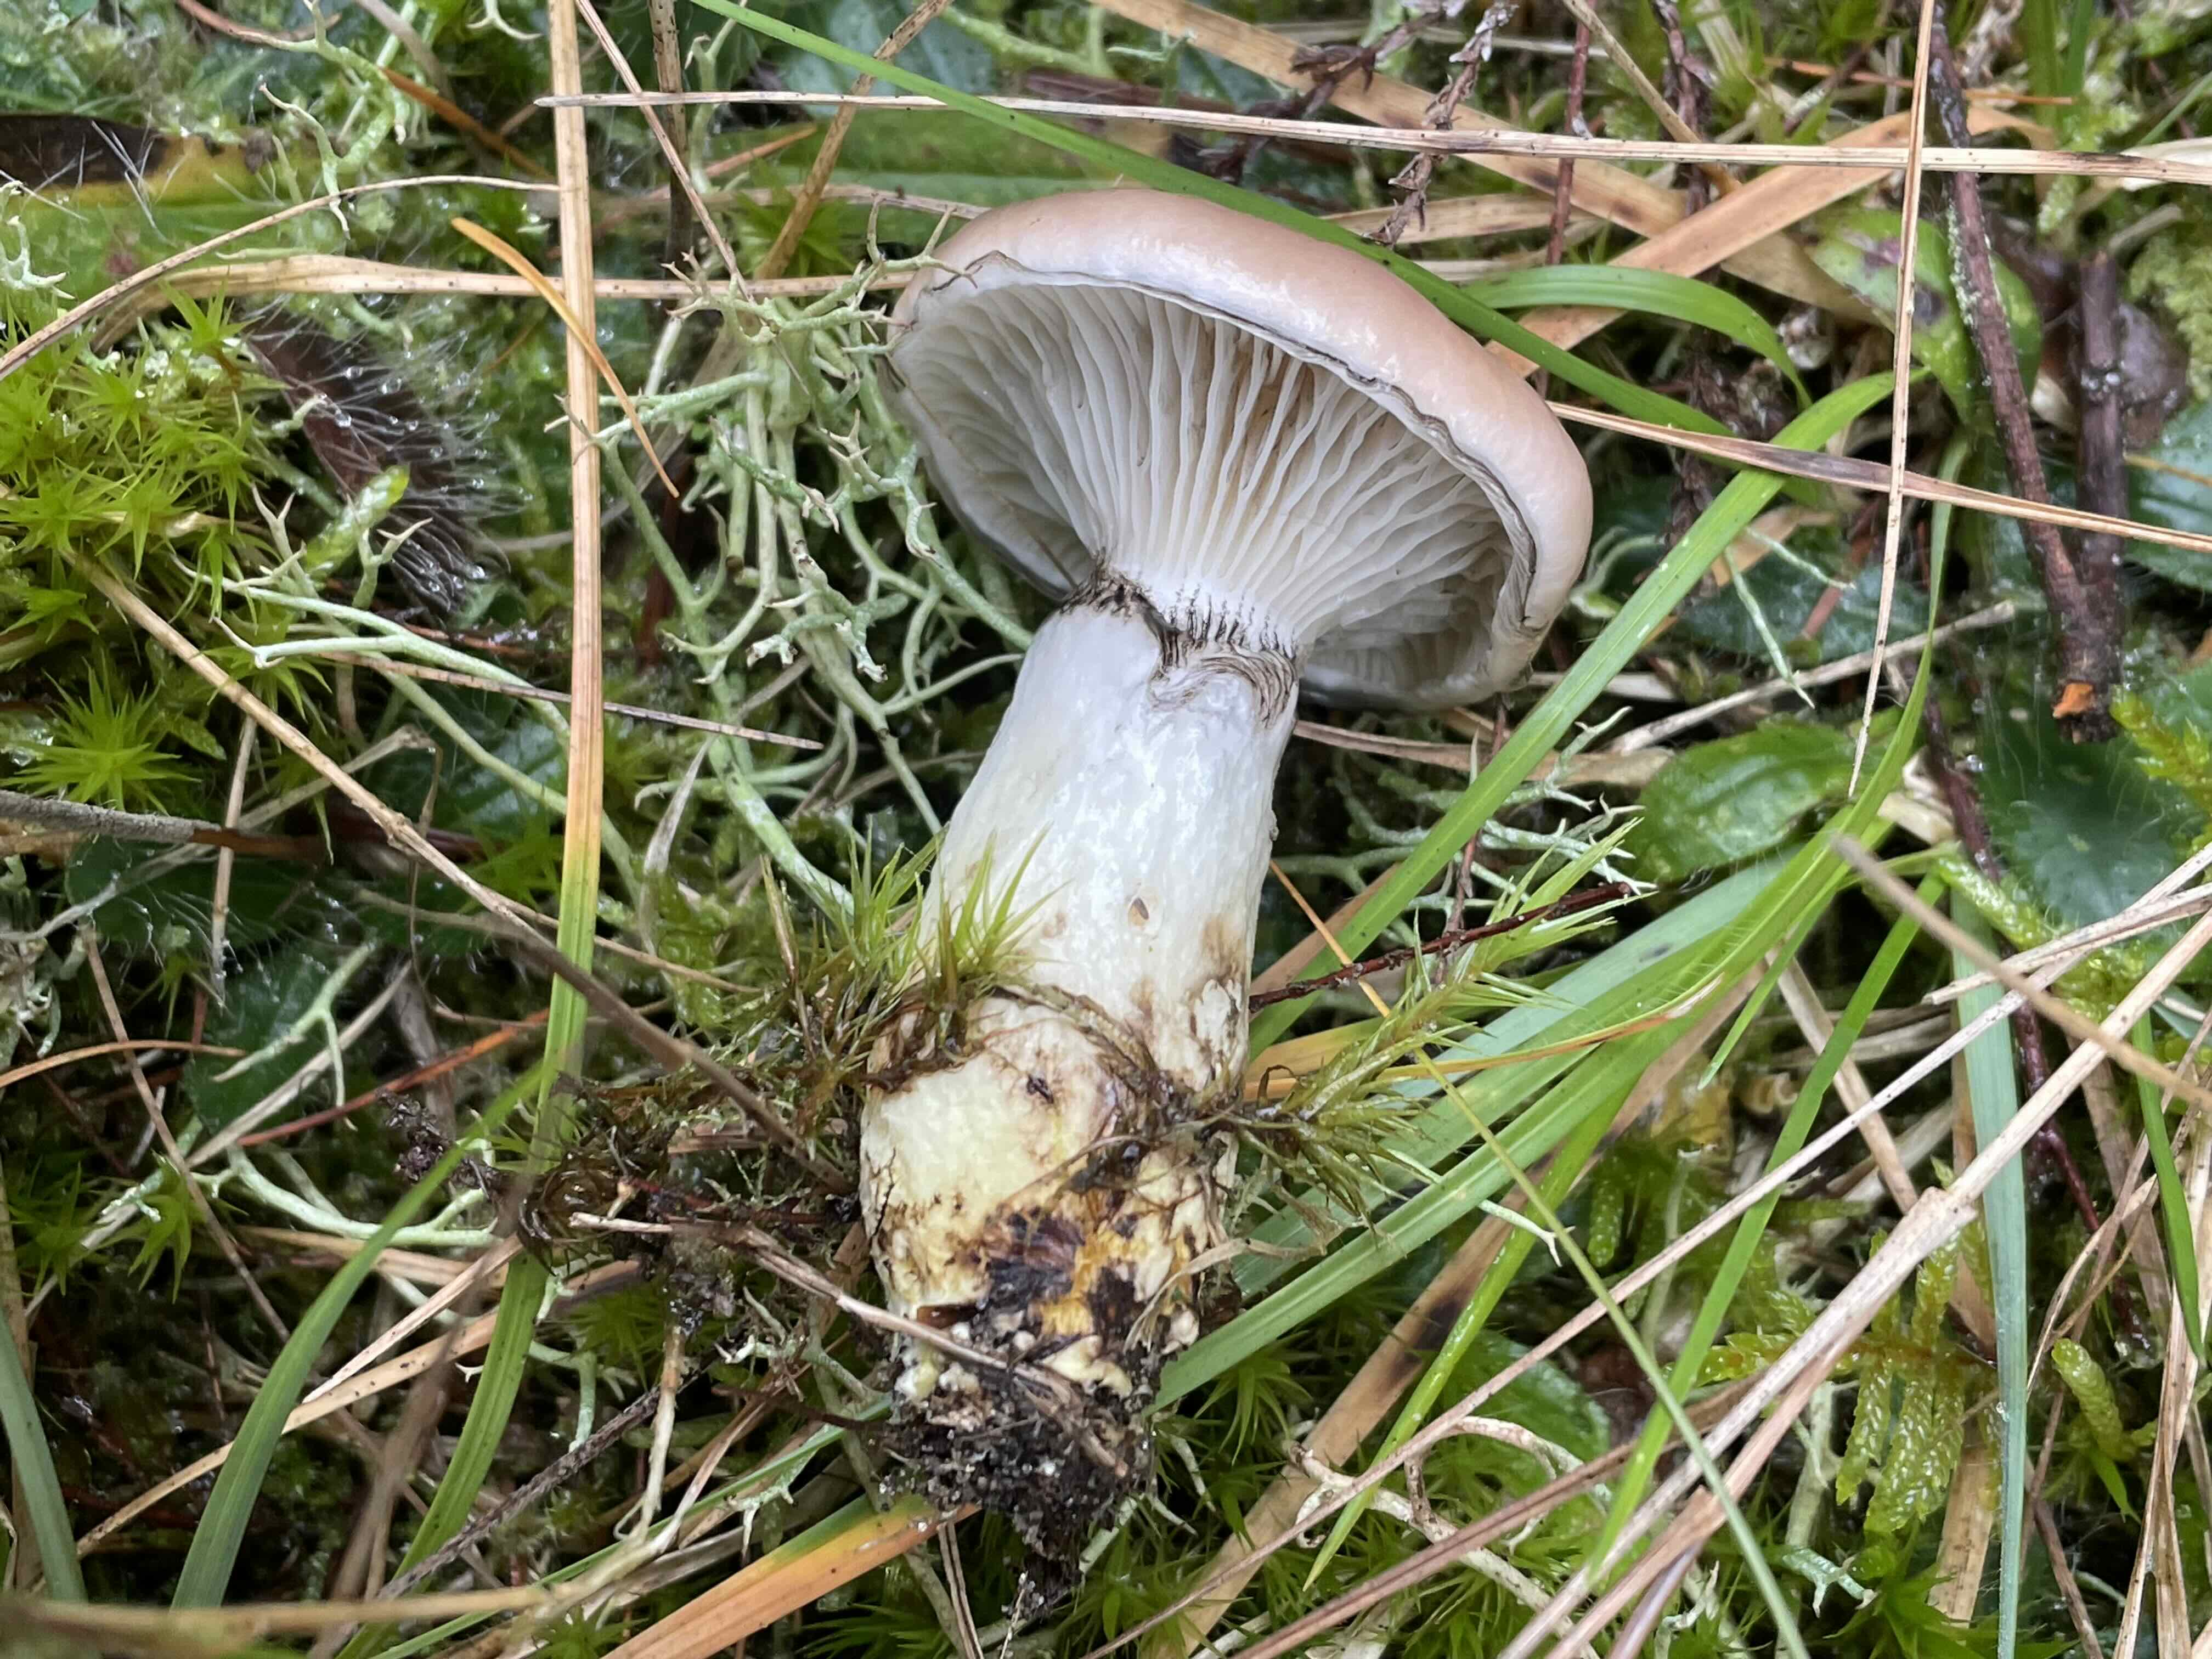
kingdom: Fungi
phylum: Basidiomycota
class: Agaricomycetes
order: Boletales
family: Gomphidiaceae
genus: Gomphidius
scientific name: Gomphidius glutinosus
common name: grå slimslør
